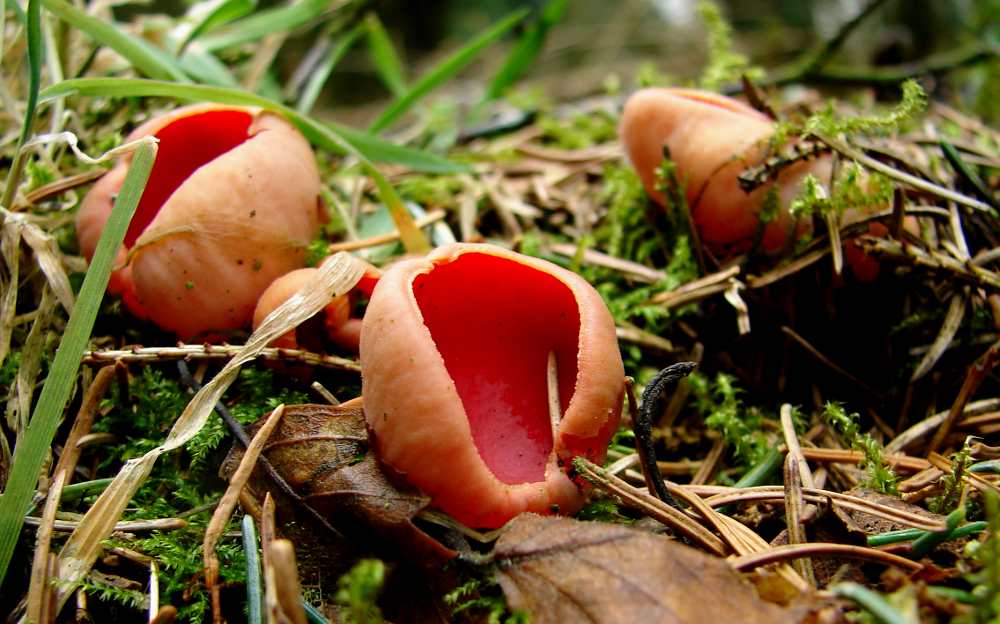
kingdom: Fungi
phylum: Ascomycota
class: Pezizomycetes
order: Pezizales
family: Sarcoscyphaceae
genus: Sarcoscypha
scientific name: Sarcoscypha austriaca
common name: krølhåret pragtbæger
